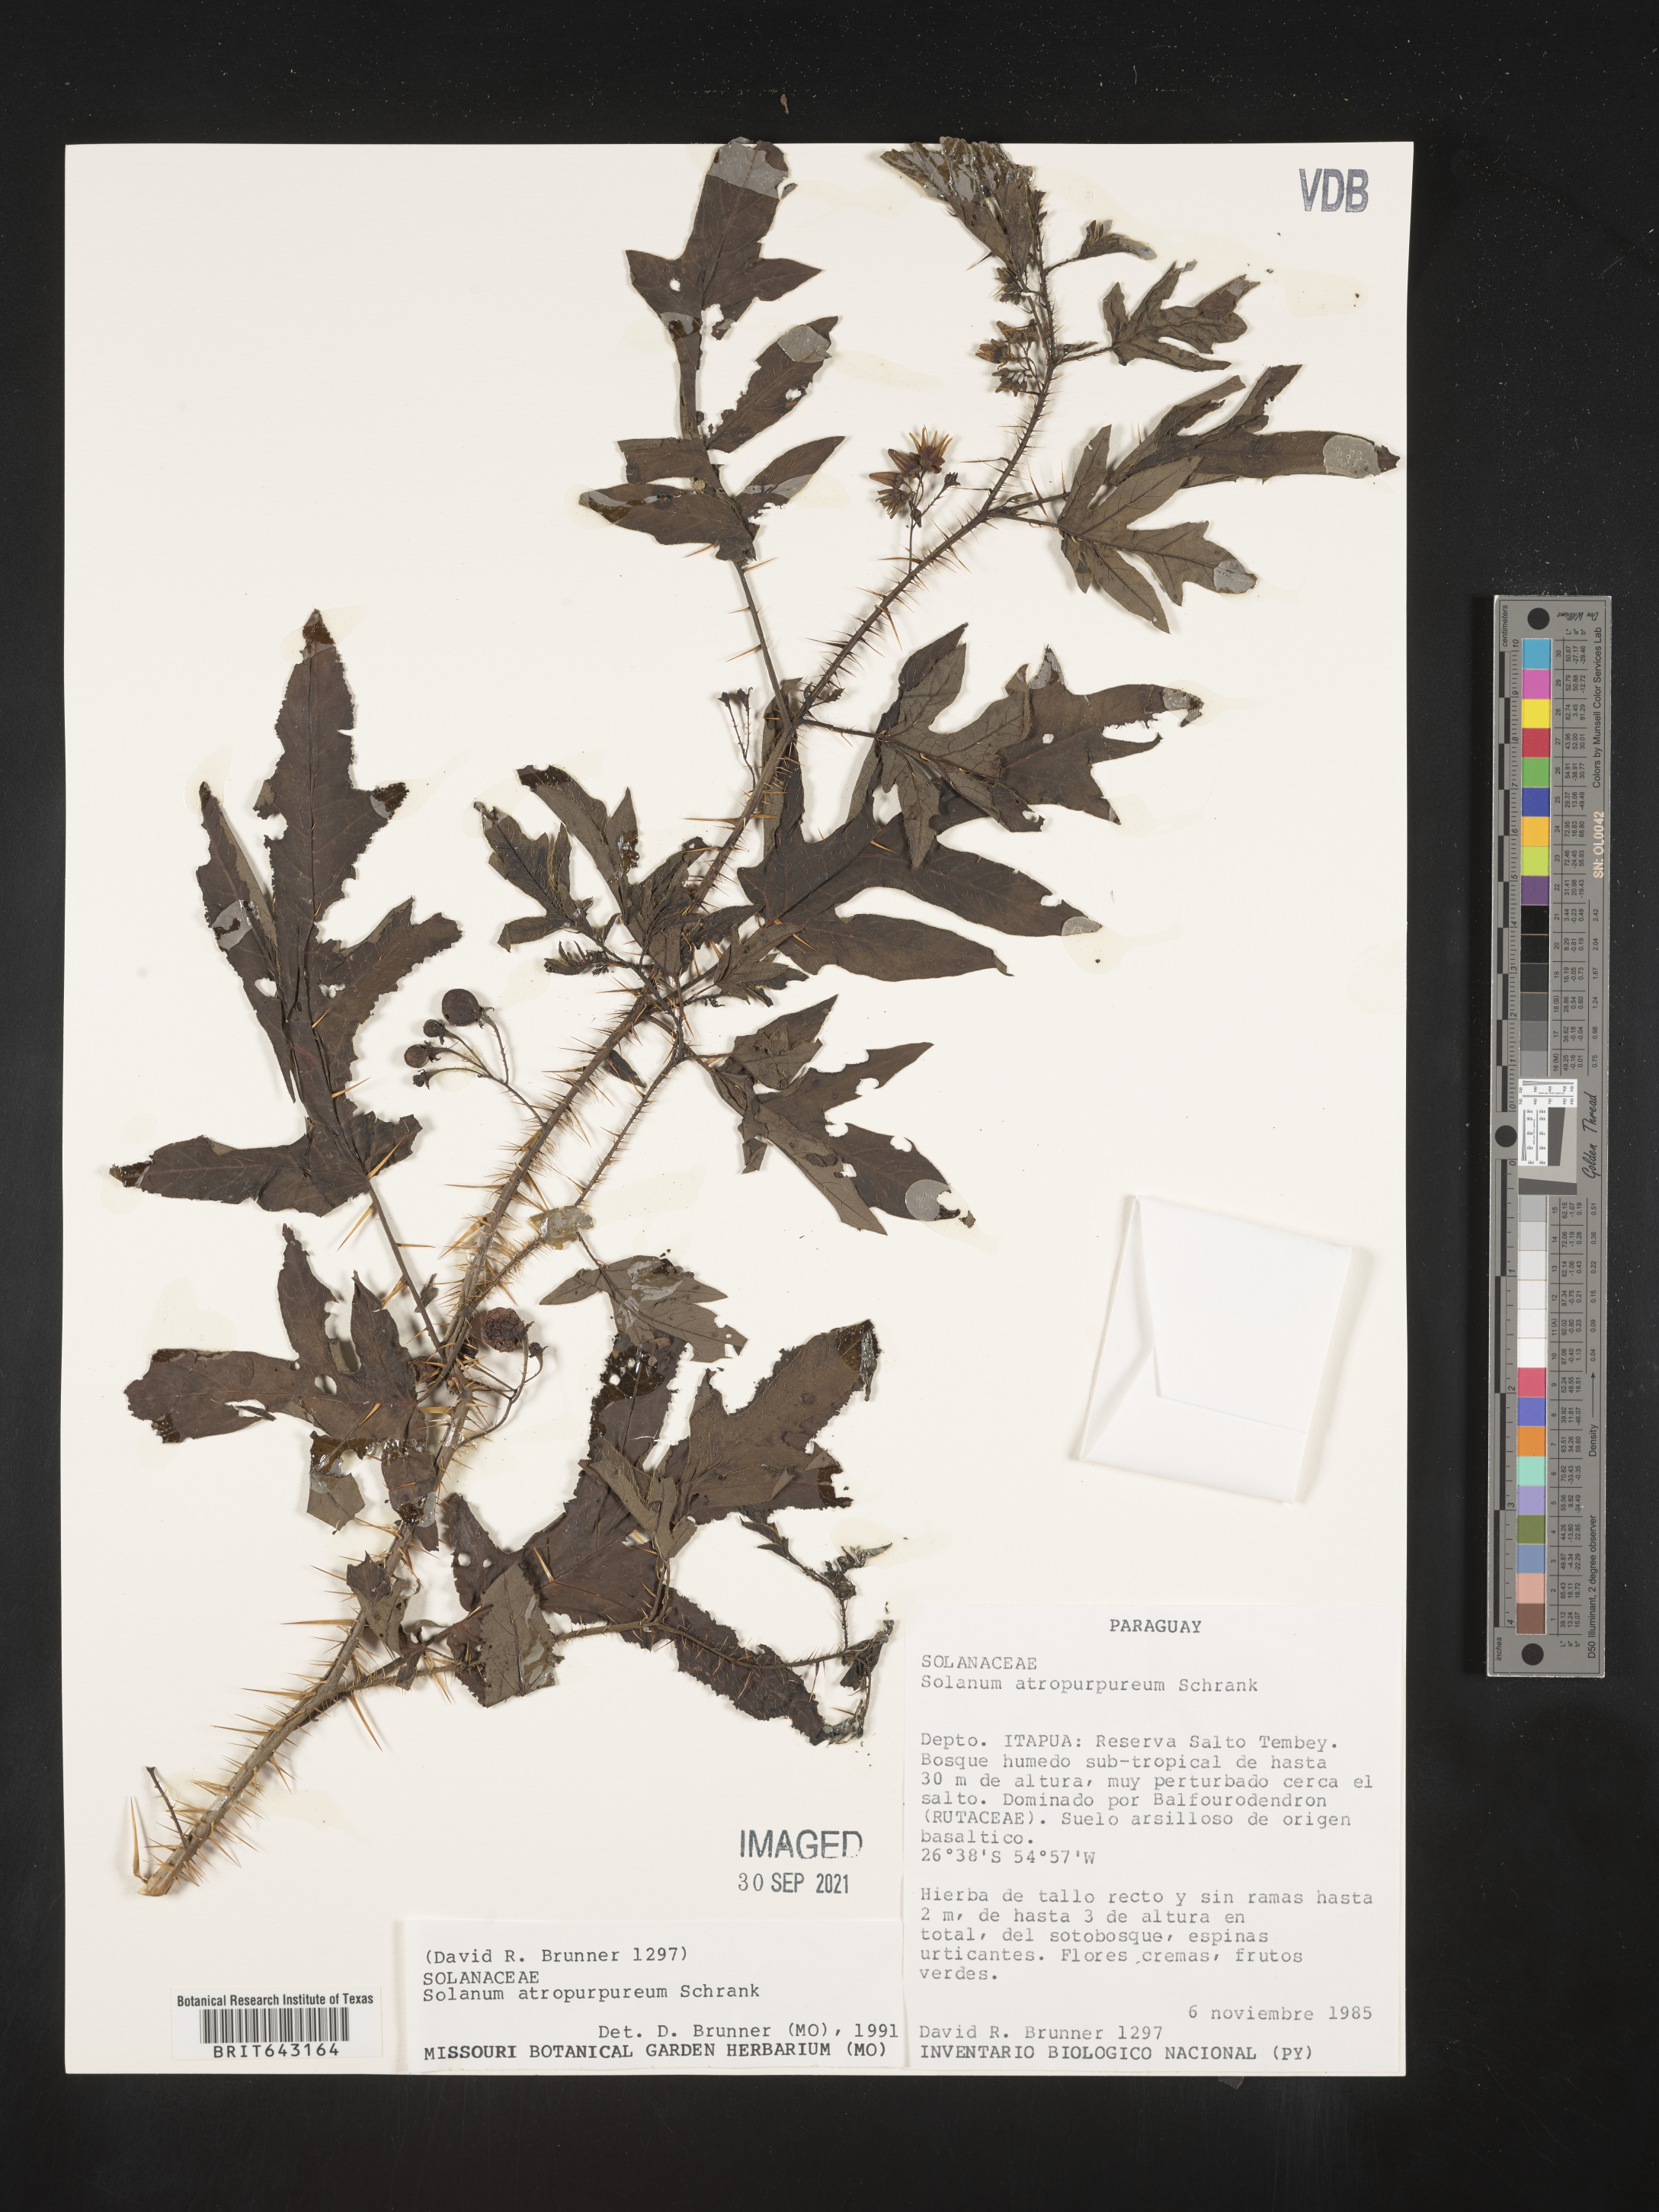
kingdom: Plantae
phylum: Tracheophyta
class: Magnoliopsida
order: Solanales
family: Solanaceae
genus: Solanum
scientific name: Solanum
